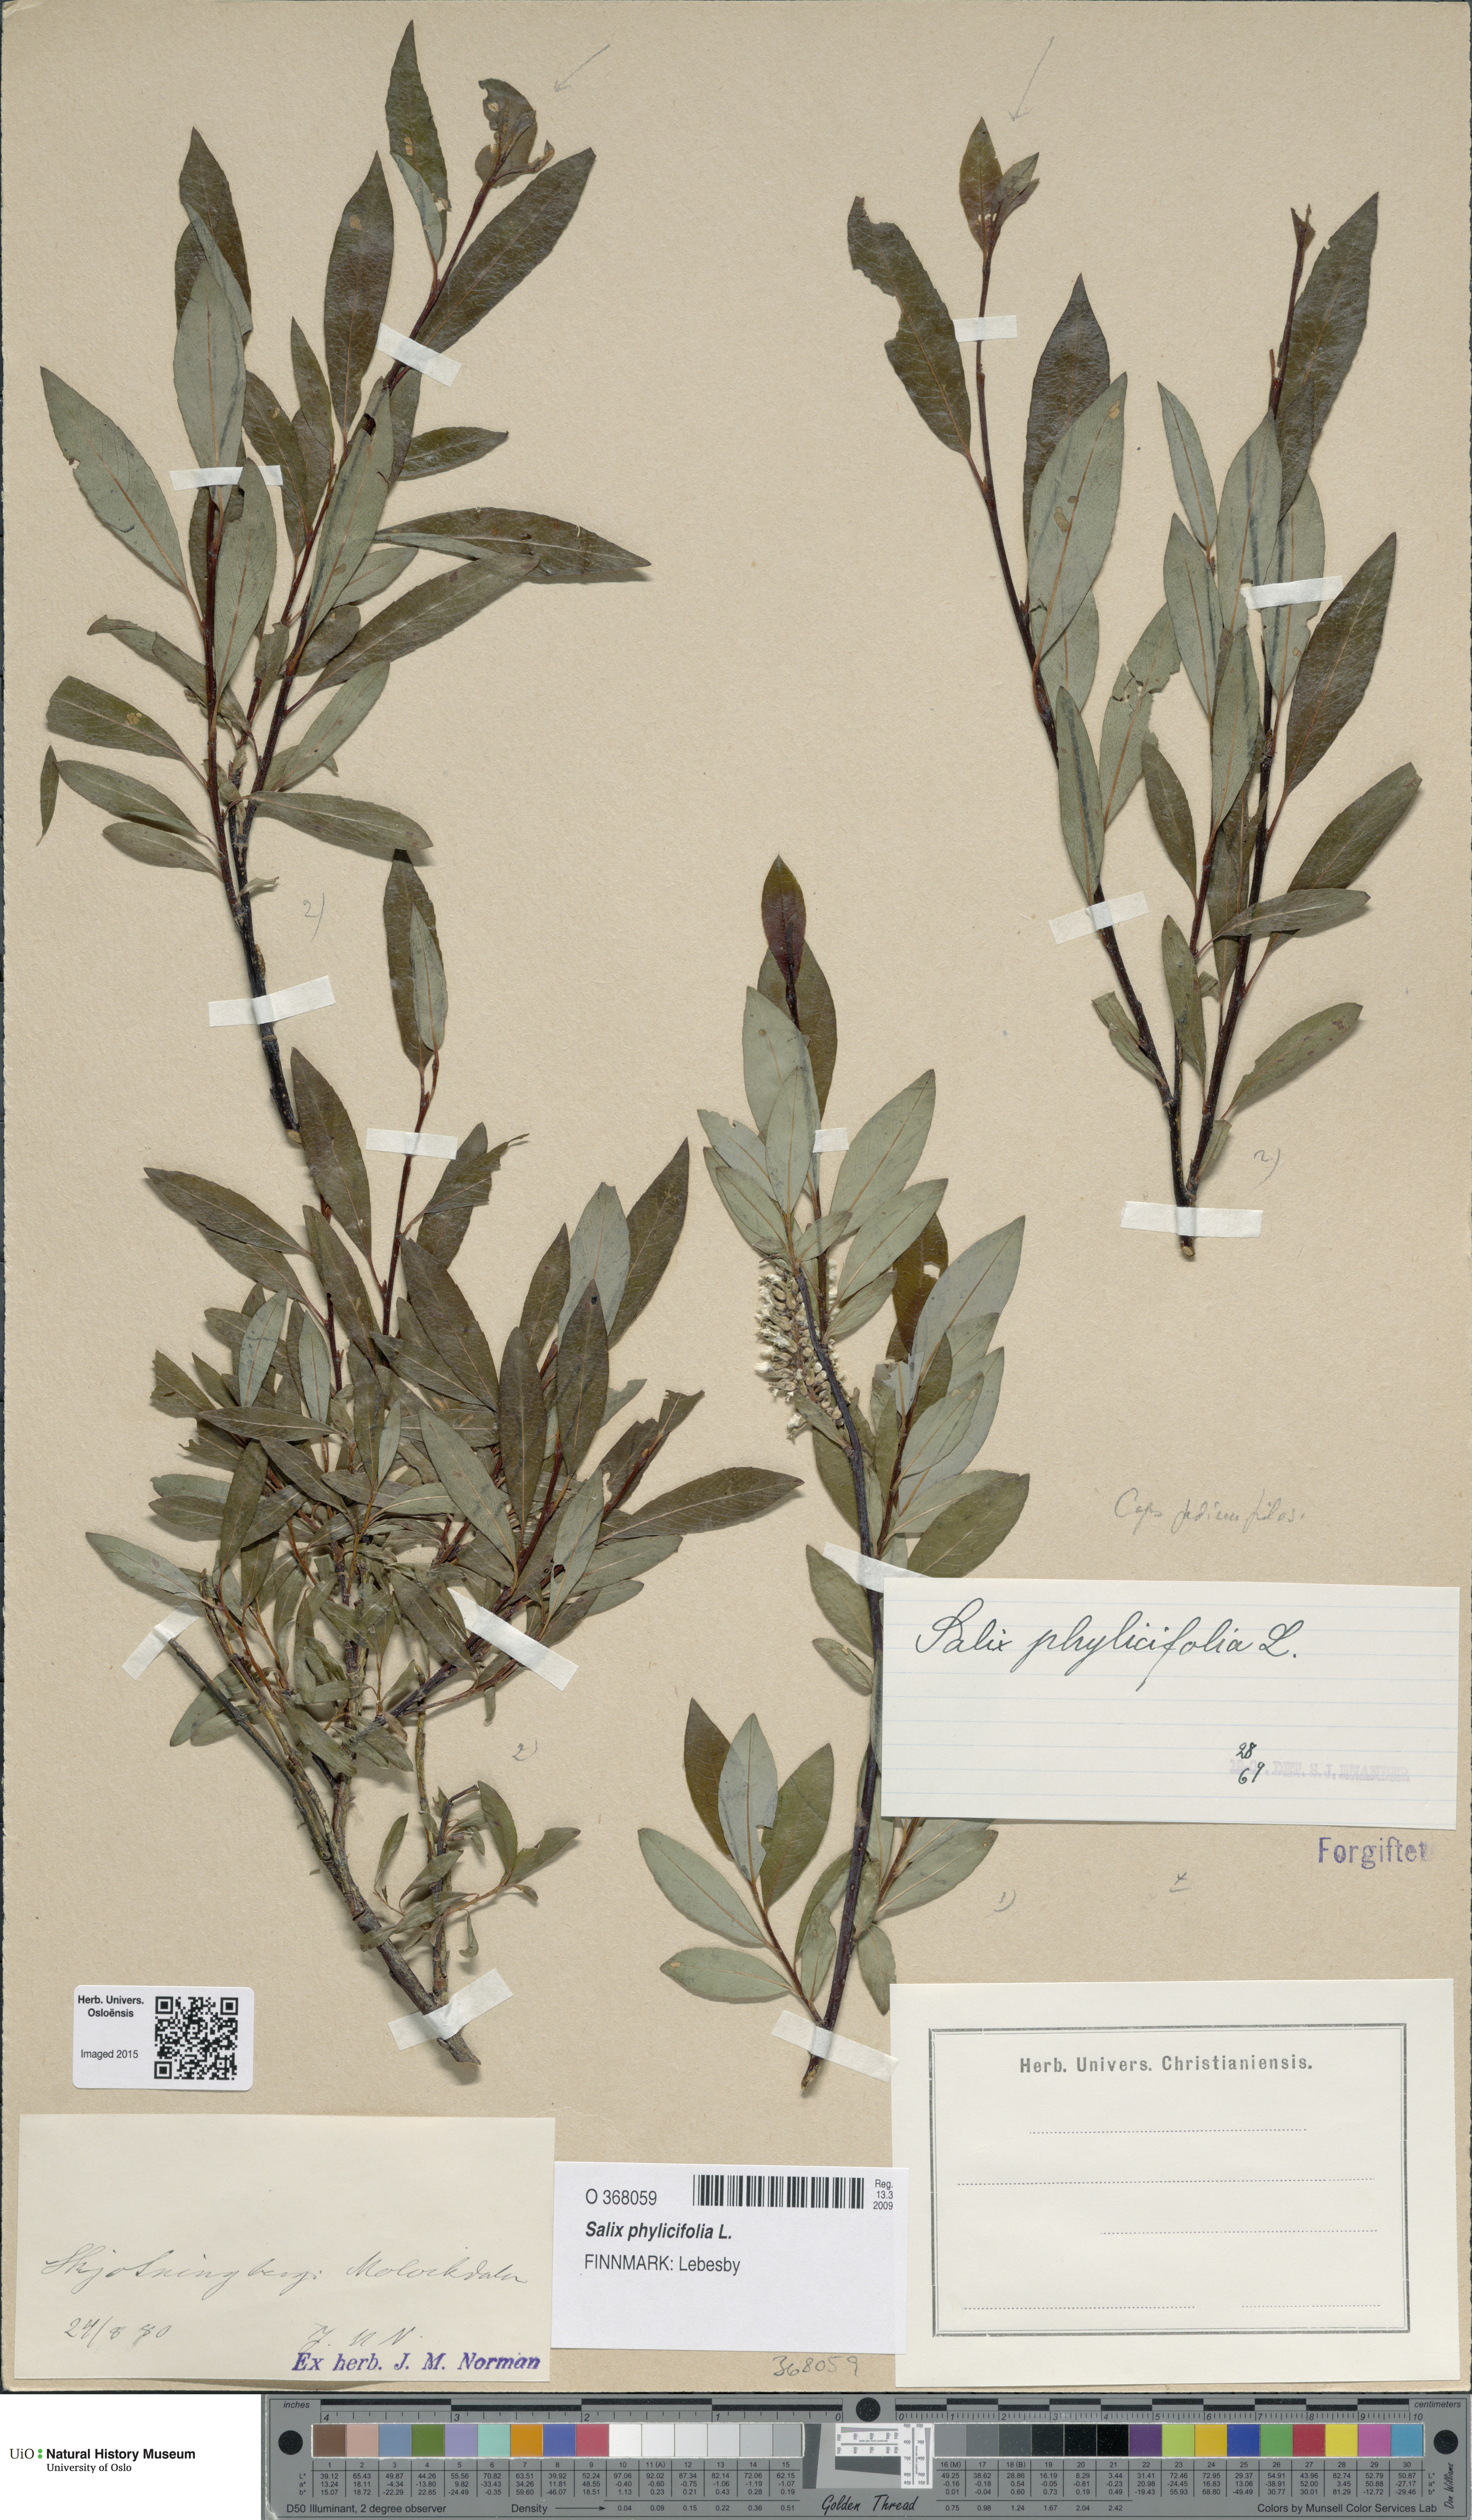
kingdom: Plantae
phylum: Tracheophyta
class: Magnoliopsida
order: Malpighiales
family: Salicaceae
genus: Salix
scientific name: Salix phylicifolia
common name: Tea-leaved willow
